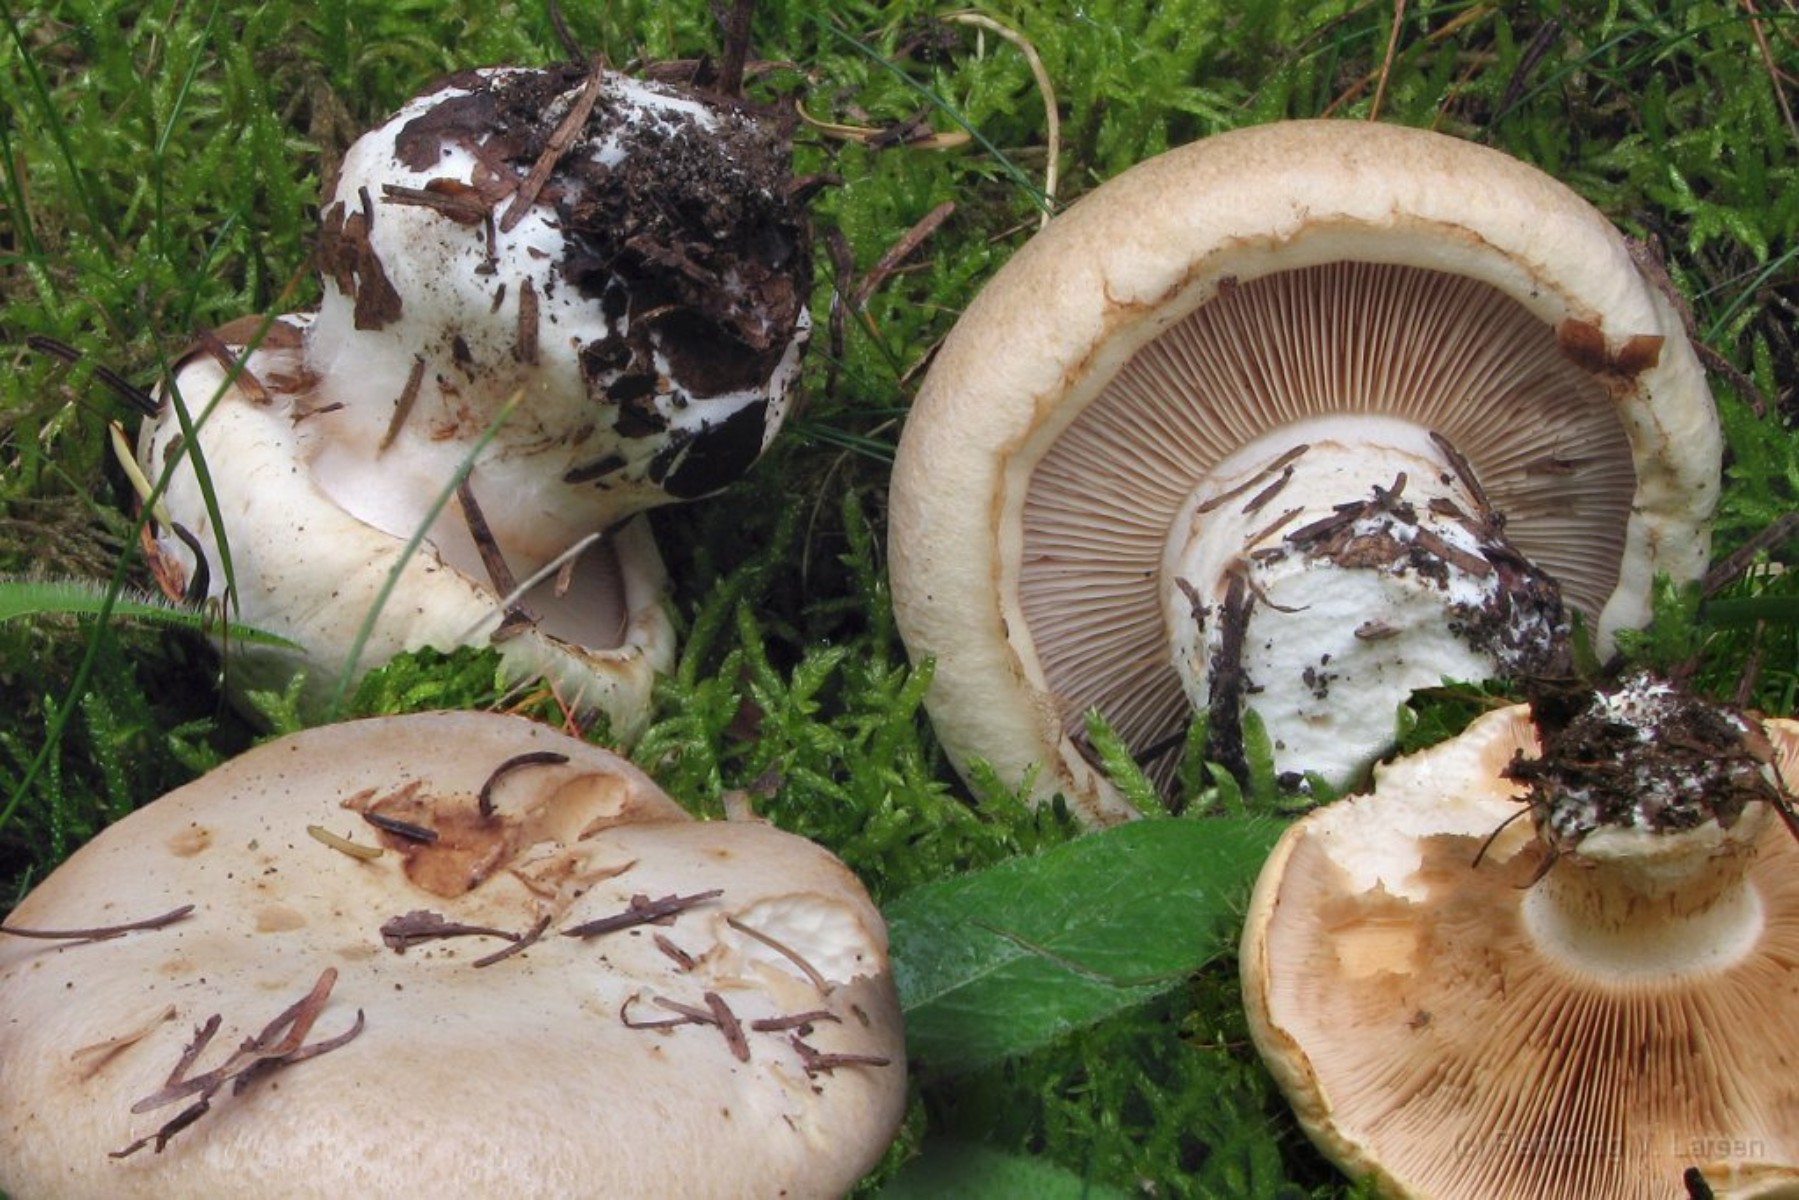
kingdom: Fungi
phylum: Basidiomycota
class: Agaricomycetes
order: Agaricales
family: Cortinariaceae
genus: Phlegmacium
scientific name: Phlegmacium areni-silvae
